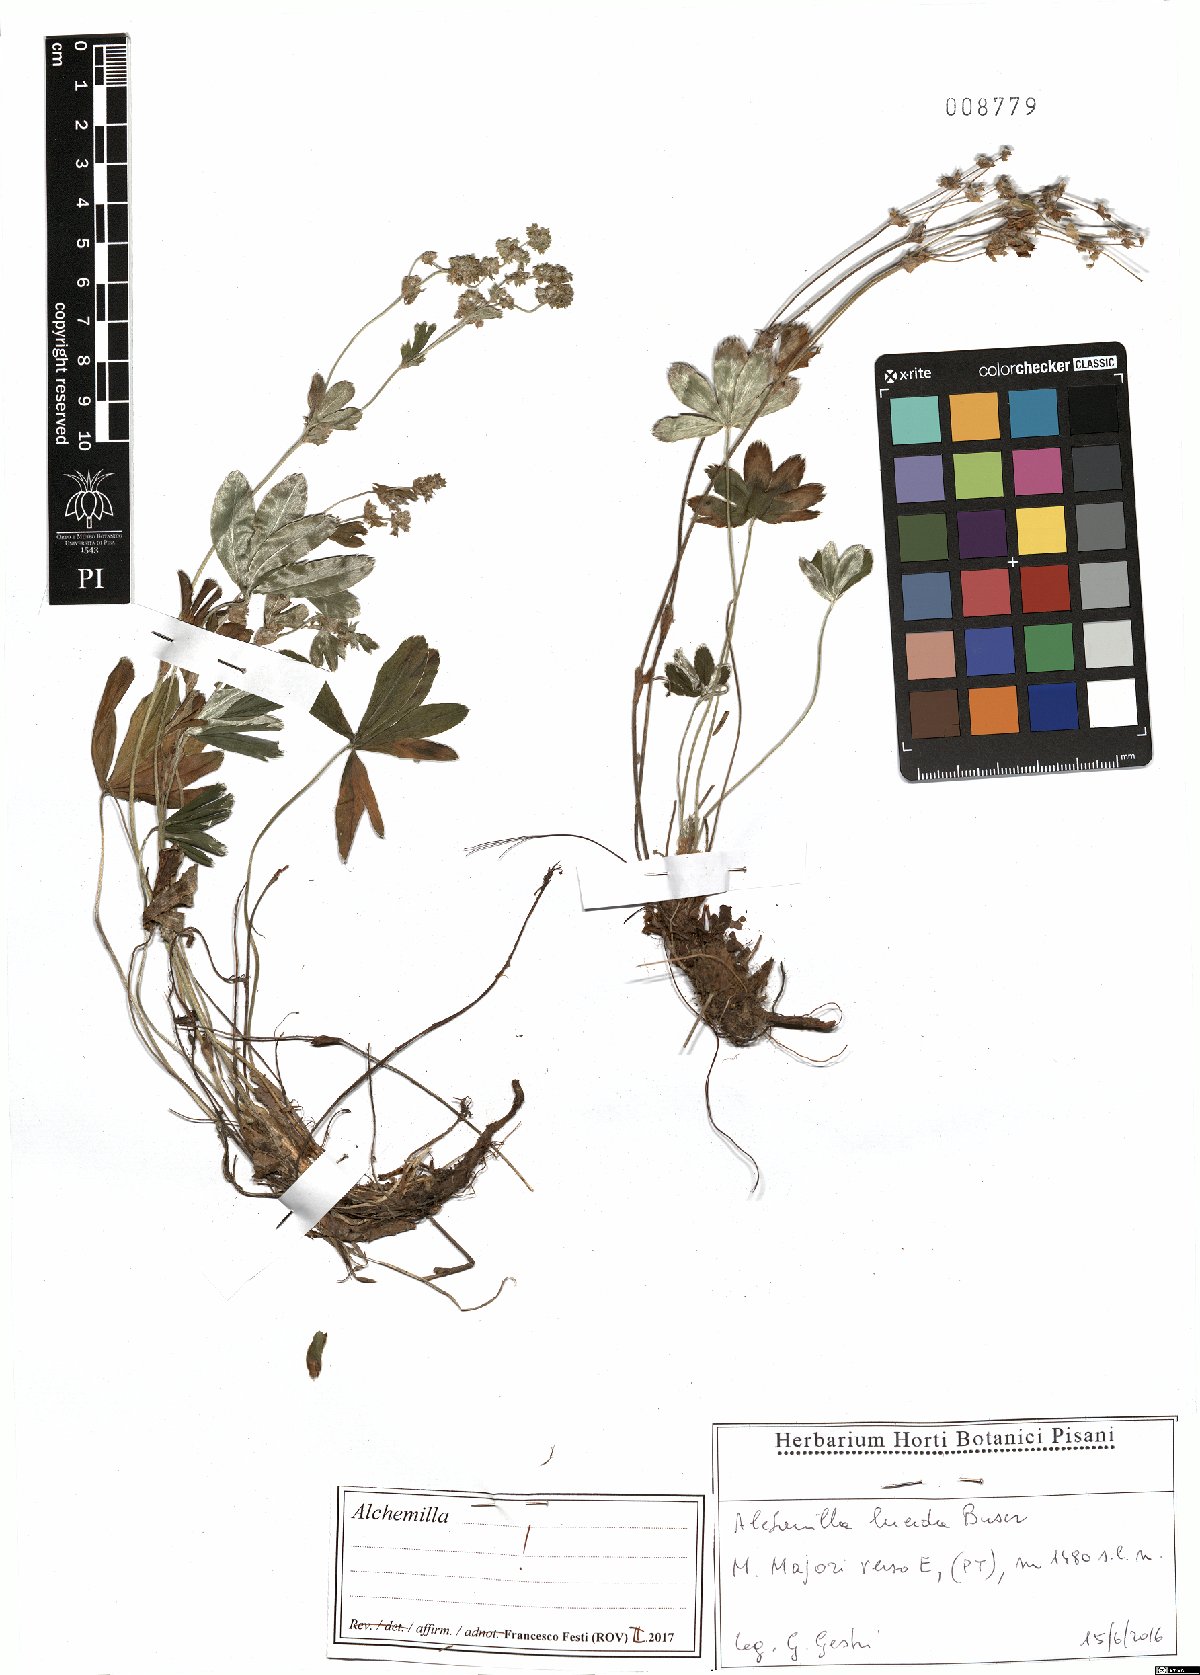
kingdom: Plantae
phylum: Tracheophyta
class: Magnoliopsida
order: Rosales
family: Rosaceae
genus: Alchemilla
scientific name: Alchemilla lucida
